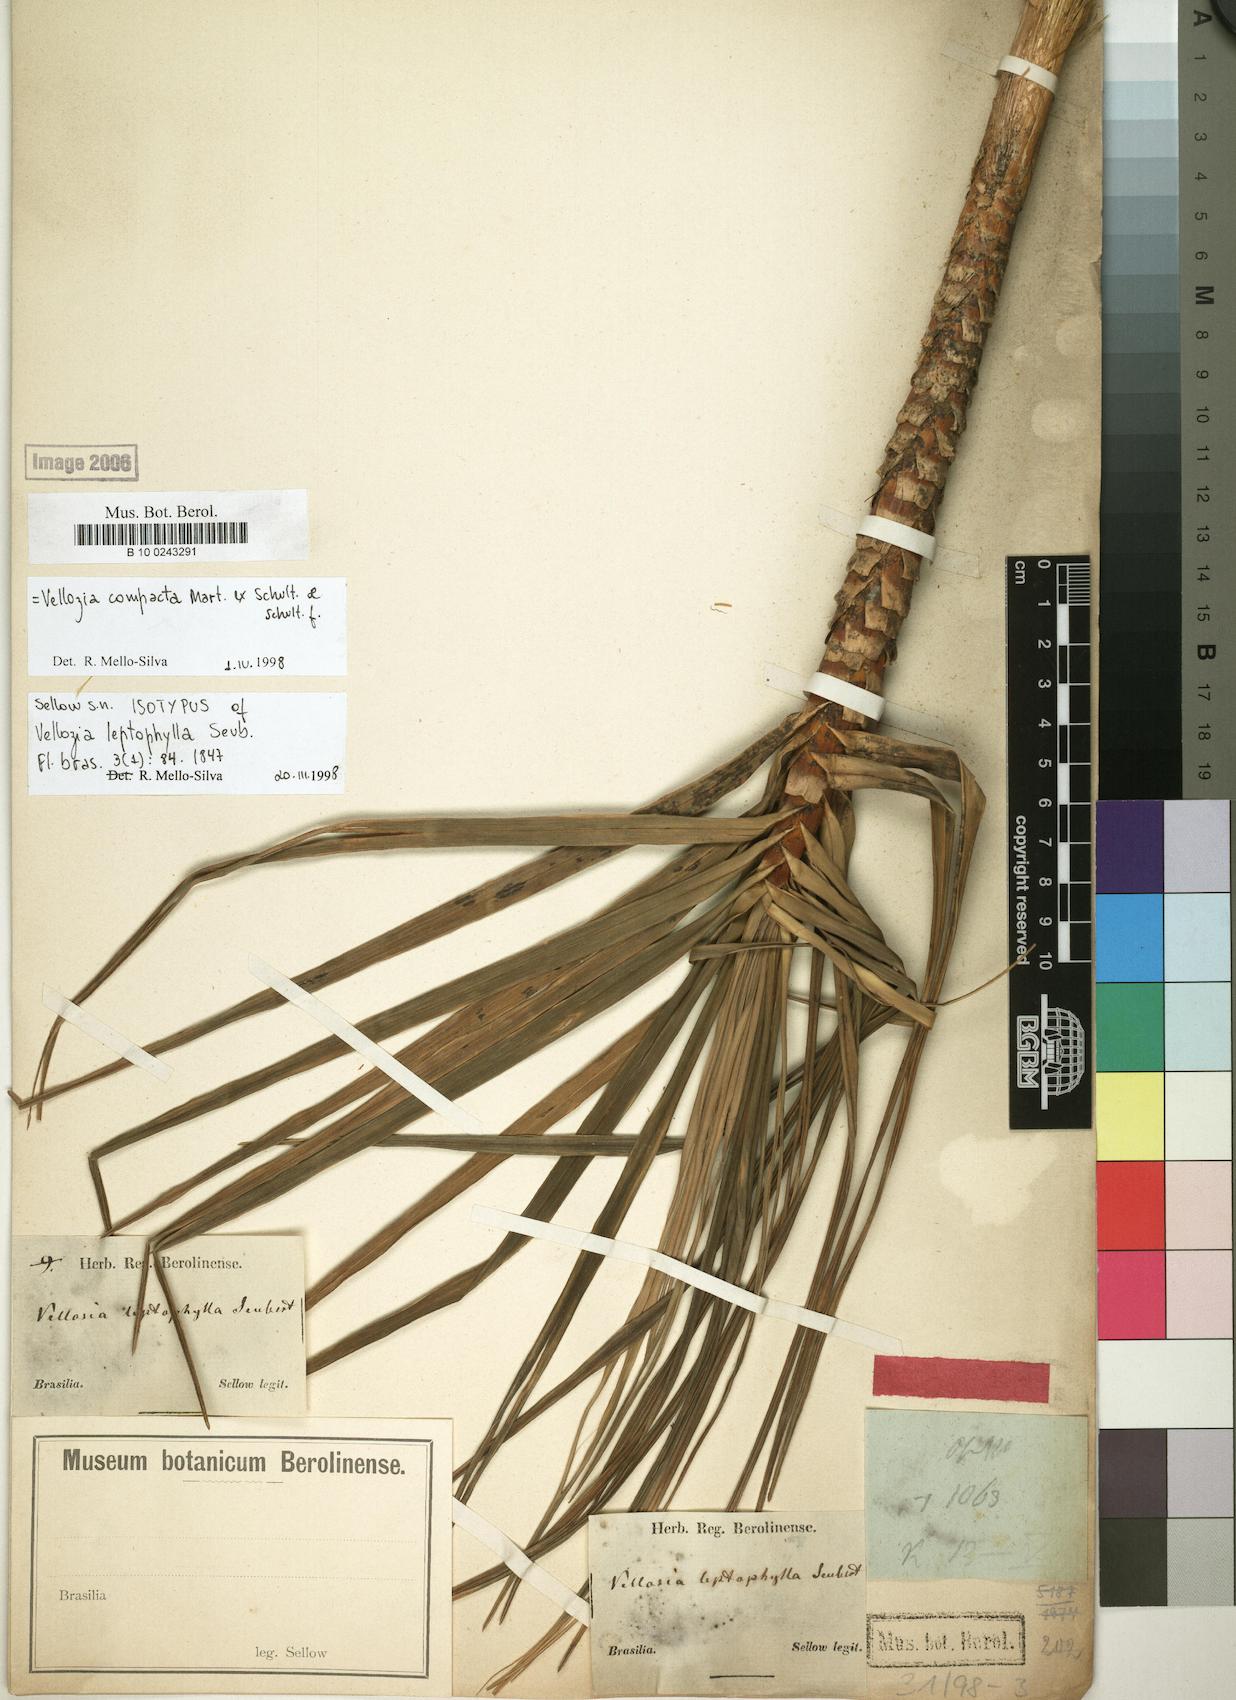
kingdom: Plantae
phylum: Tracheophyta
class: Liliopsida
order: Pandanales
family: Velloziaceae
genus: Vellozia
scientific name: Vellozia compacta
